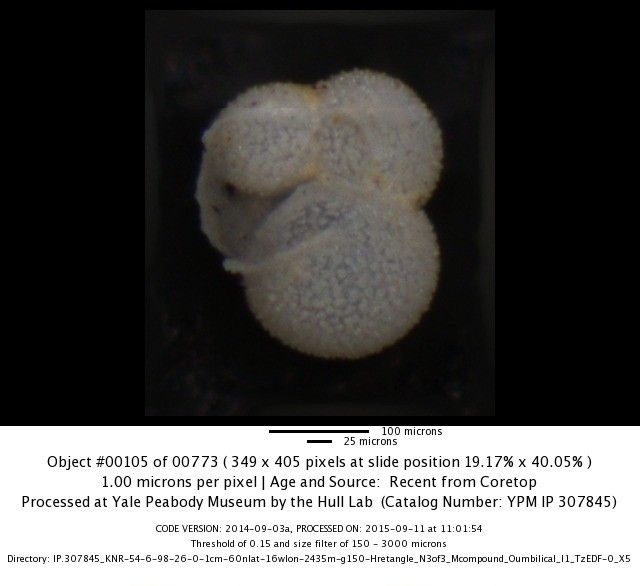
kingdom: Chromista
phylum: Foraminifera
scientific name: Foraminifera
